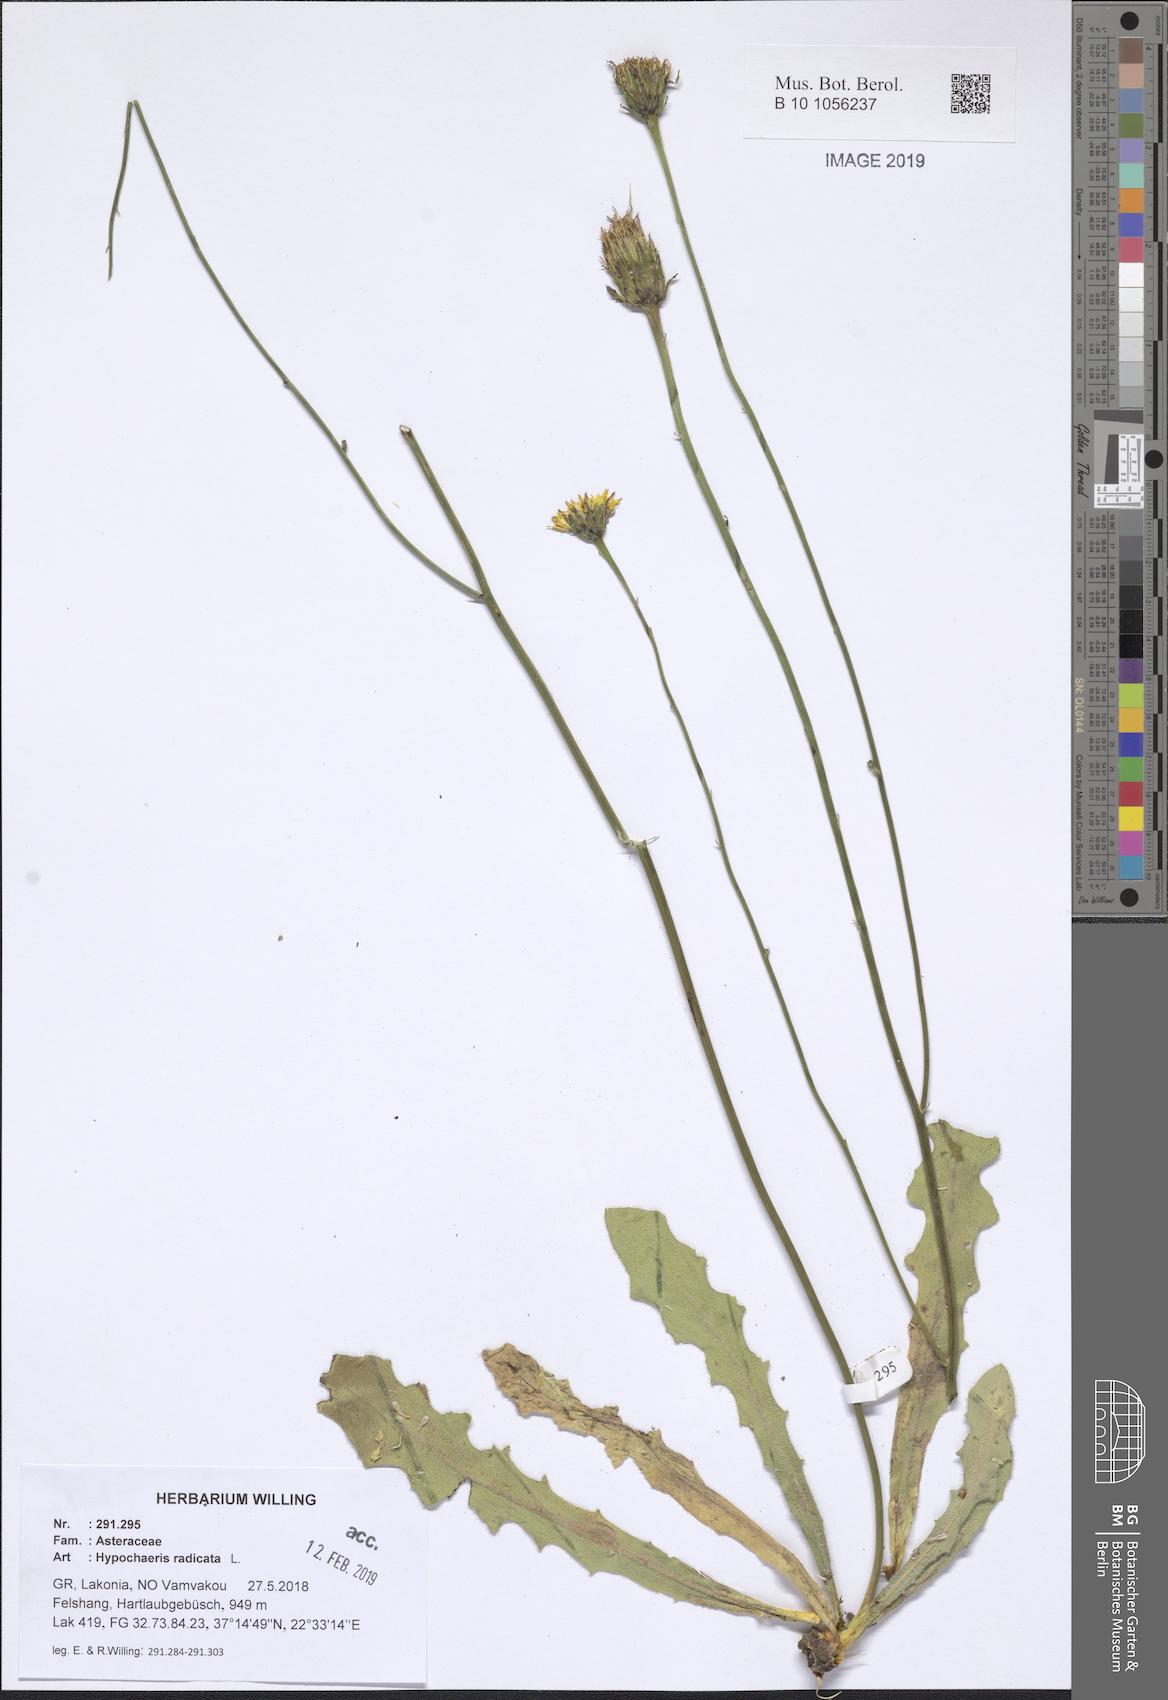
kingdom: Plantae
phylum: Tracheophyta
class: Magnoliopsida
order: Asterales
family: Asteraceae
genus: Hypochaeris
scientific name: Hypochaeris radicata
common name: Flatweed
